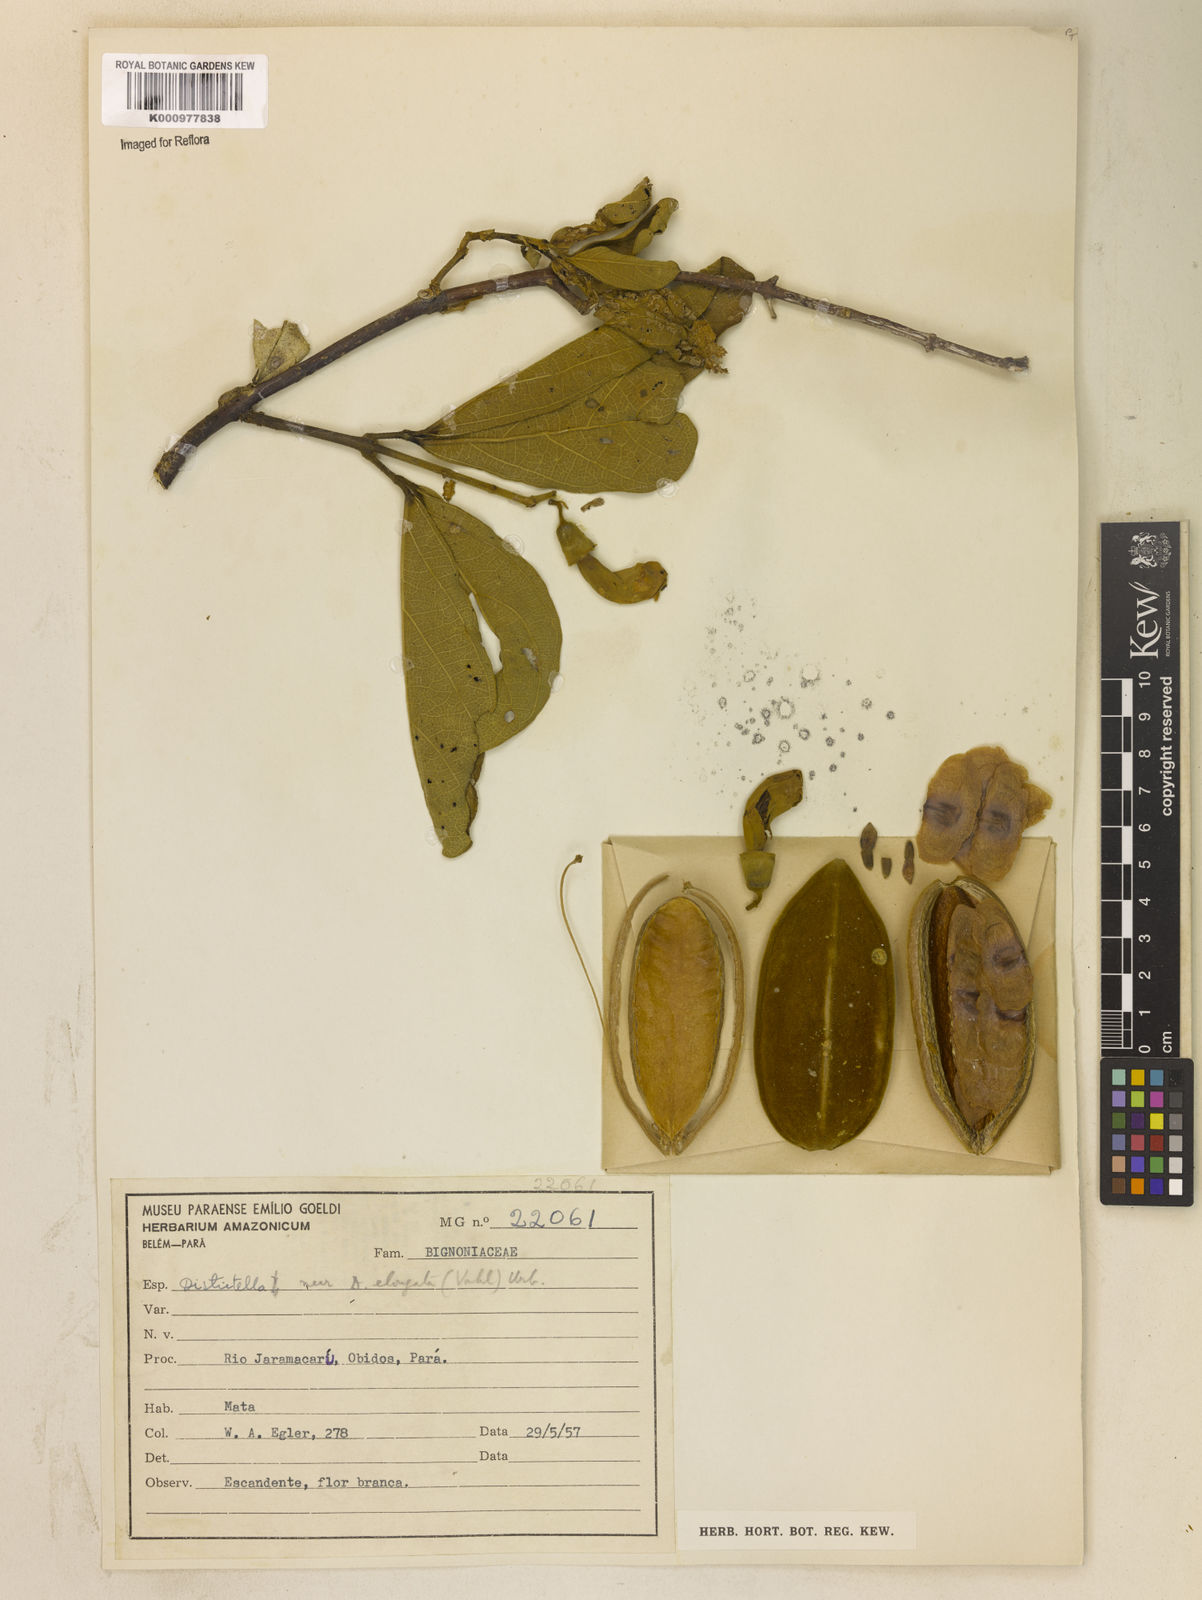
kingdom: Plantae
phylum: Tracheophyta
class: Magnoliopsida
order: Lamiales
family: Bignoniaceae
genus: Amphilophium
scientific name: Amphilophium elongatum
